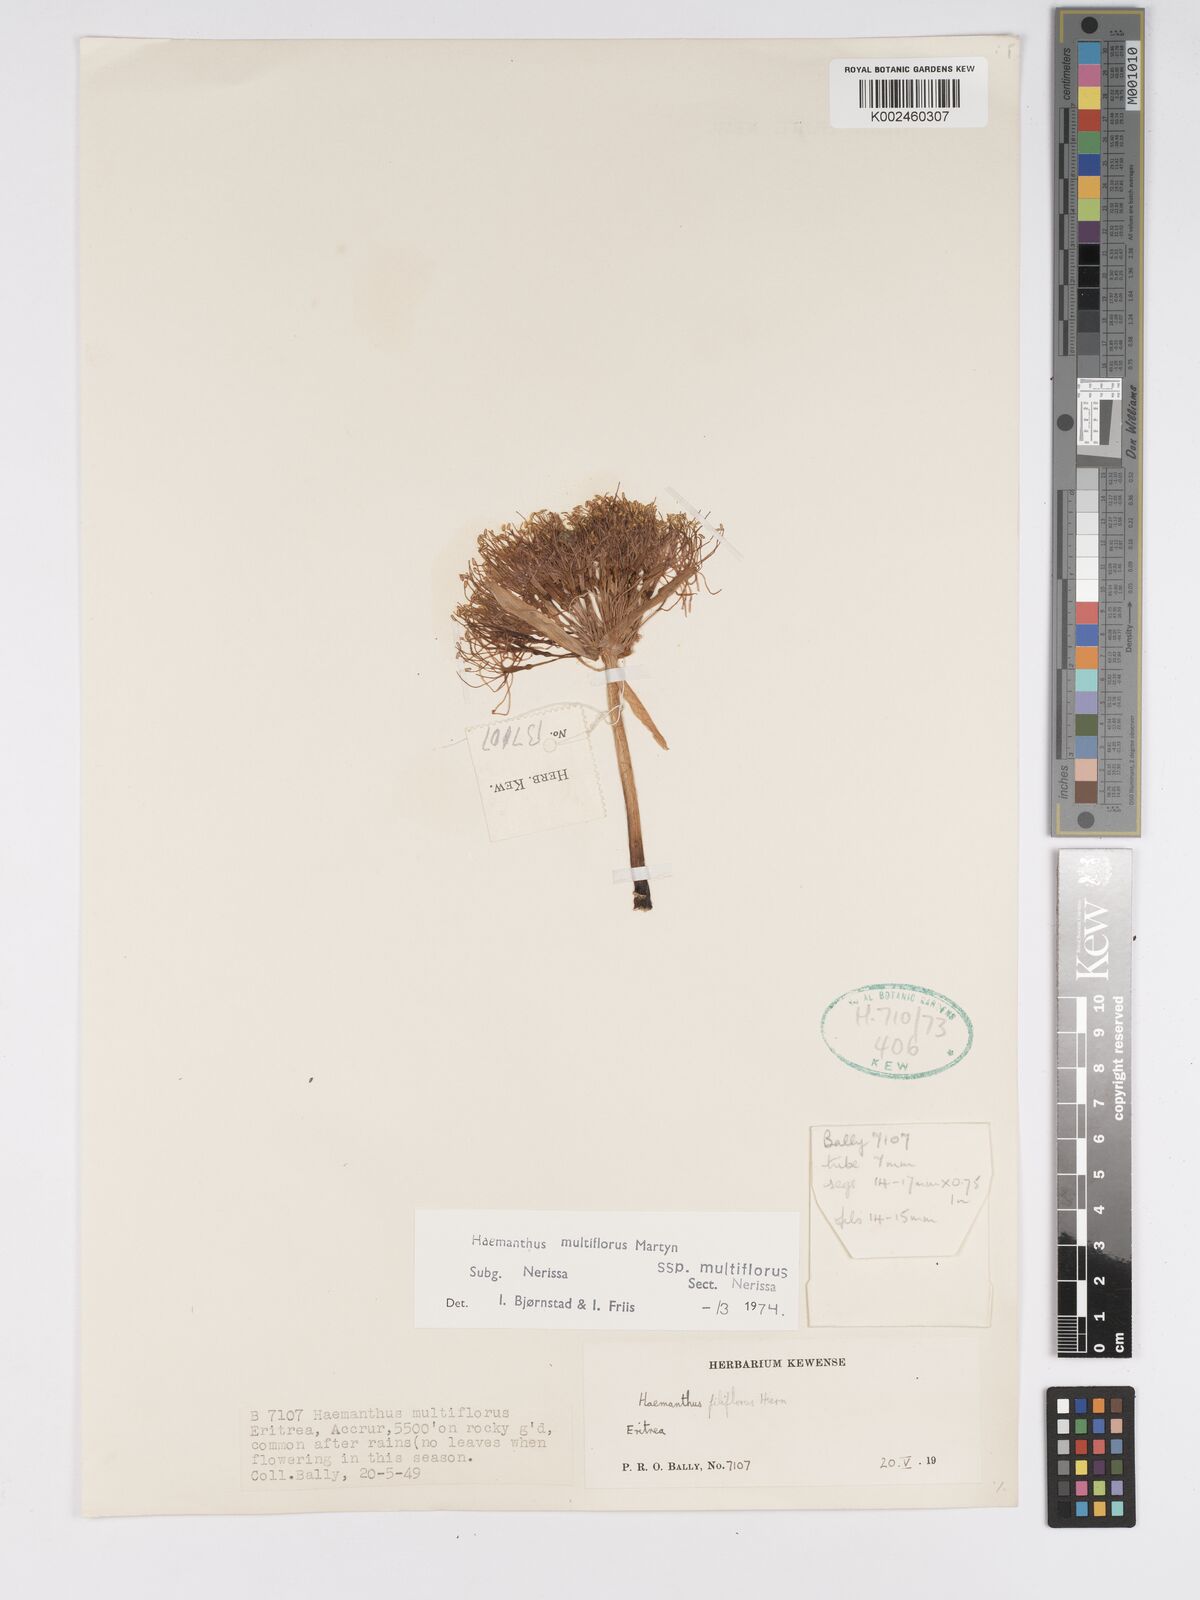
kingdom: Plantae
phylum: Tracheophyta
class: Liliopsida
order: Asparagales
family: Amaryllidaceae
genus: Scadoxus
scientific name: Scadoxus multiflorus
